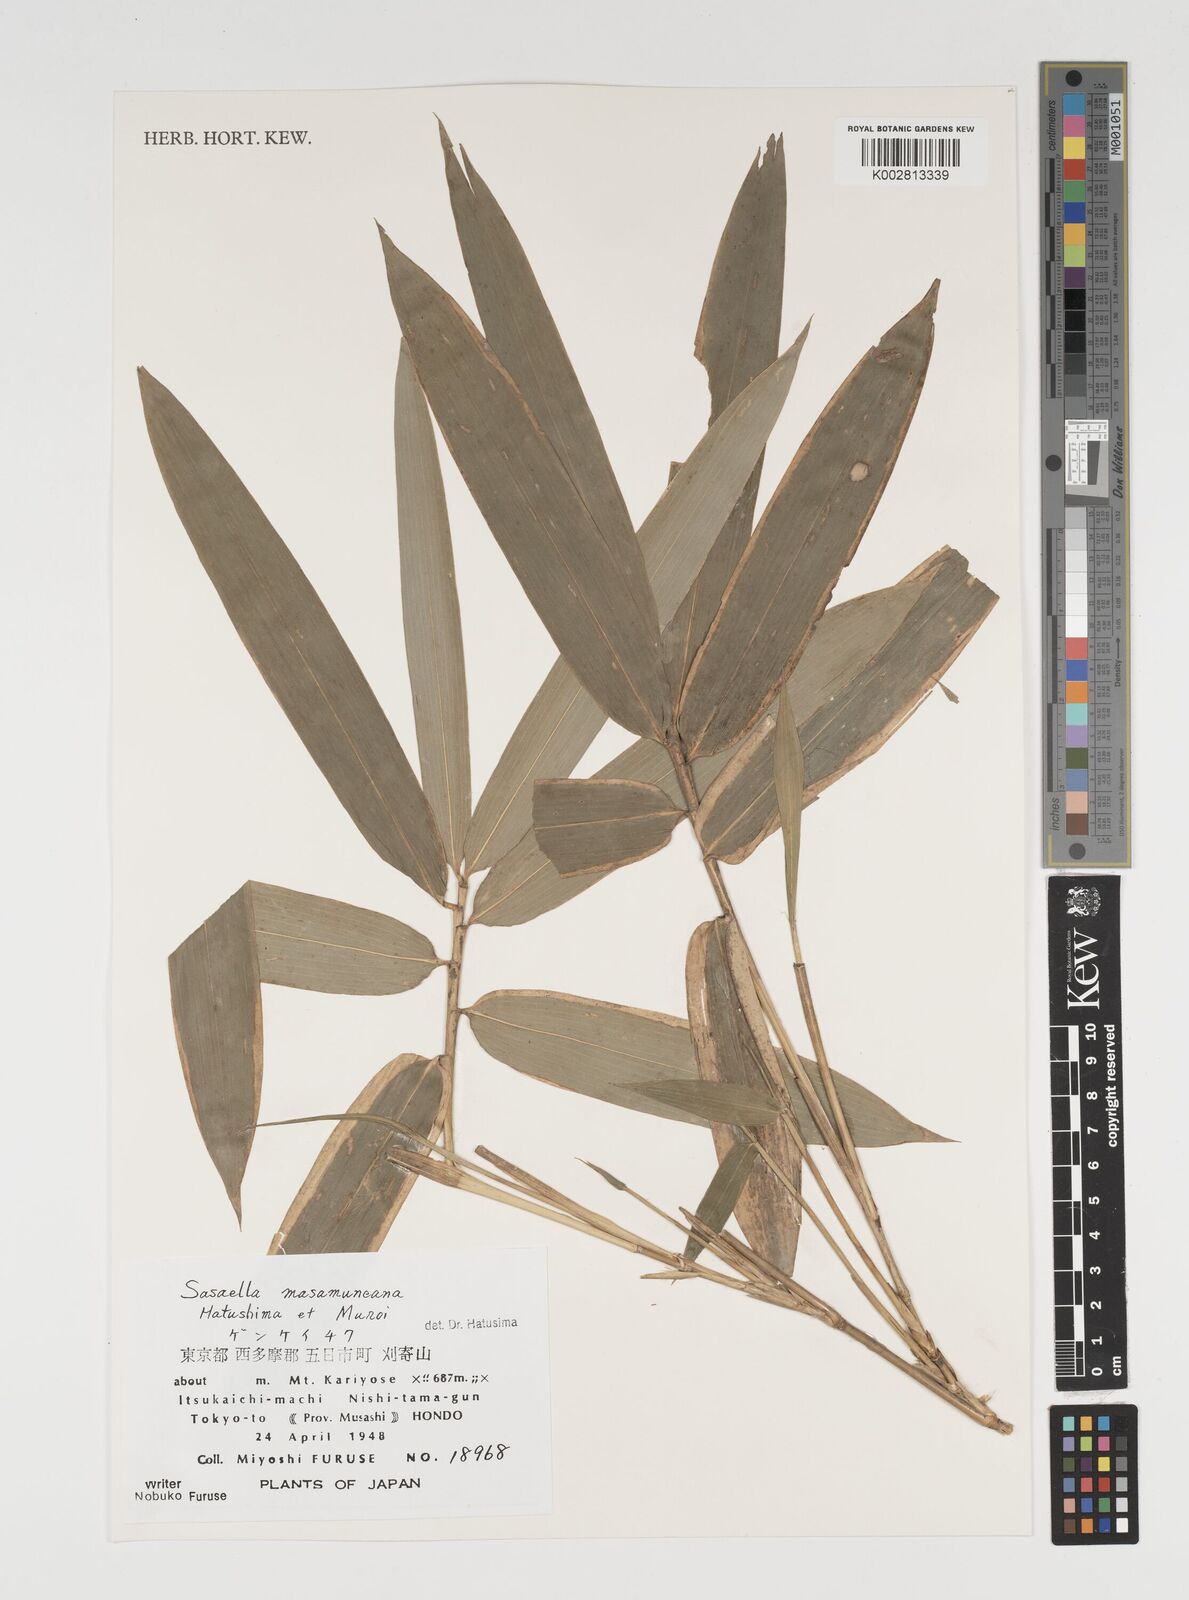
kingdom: Plantae
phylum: Tracheophyta
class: Liliopsida
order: Poales
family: Poaceae
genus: Sasaella
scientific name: Sasaella masamuneana
